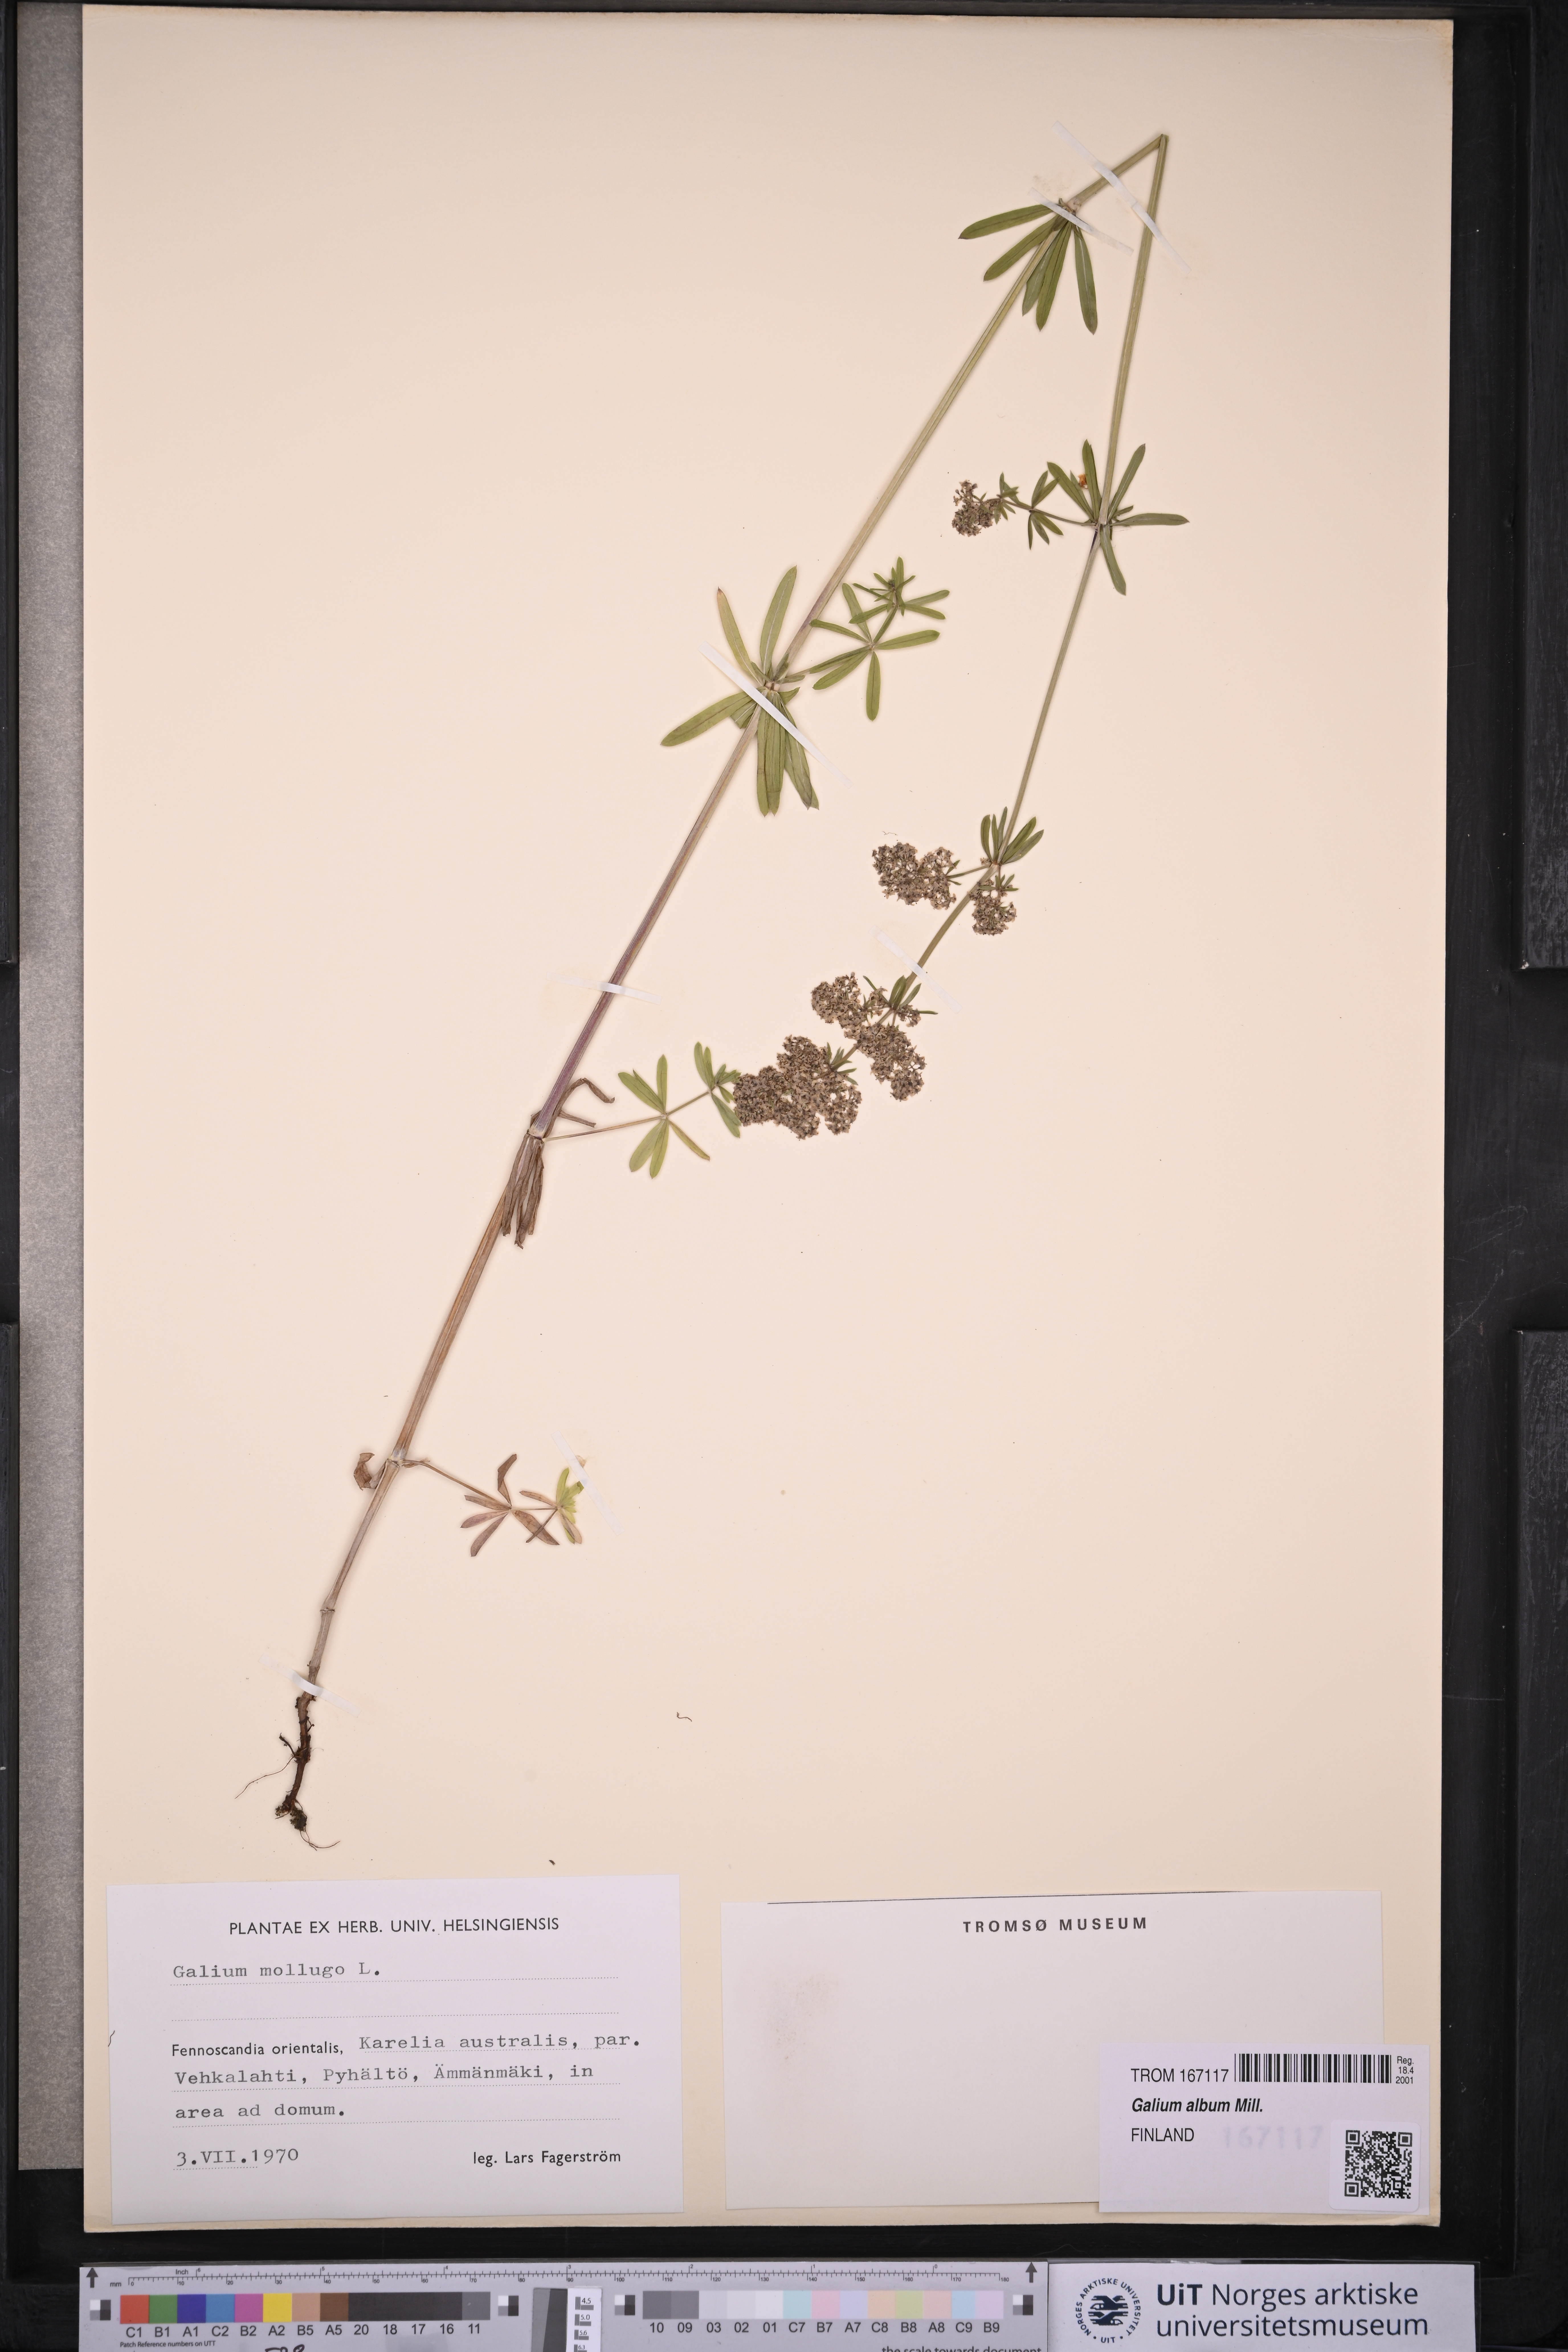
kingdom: Plantae
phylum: Tracheophyta
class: Magnoliopsida
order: Gentianales
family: Rubiaceae
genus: Galium
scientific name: Galium
